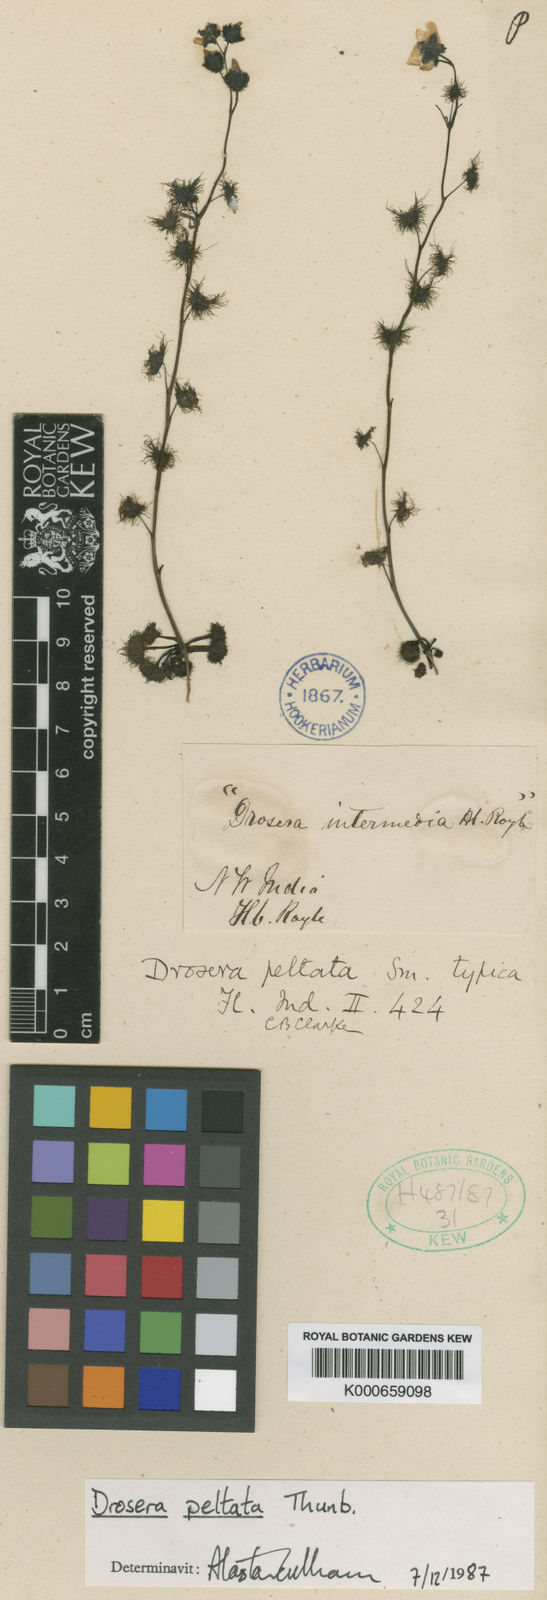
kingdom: Plantae
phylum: Tracheophyta
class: Magnoliopsida
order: Caryophyllales
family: Droseraceae
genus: Drosera
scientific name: Drosera peltata
